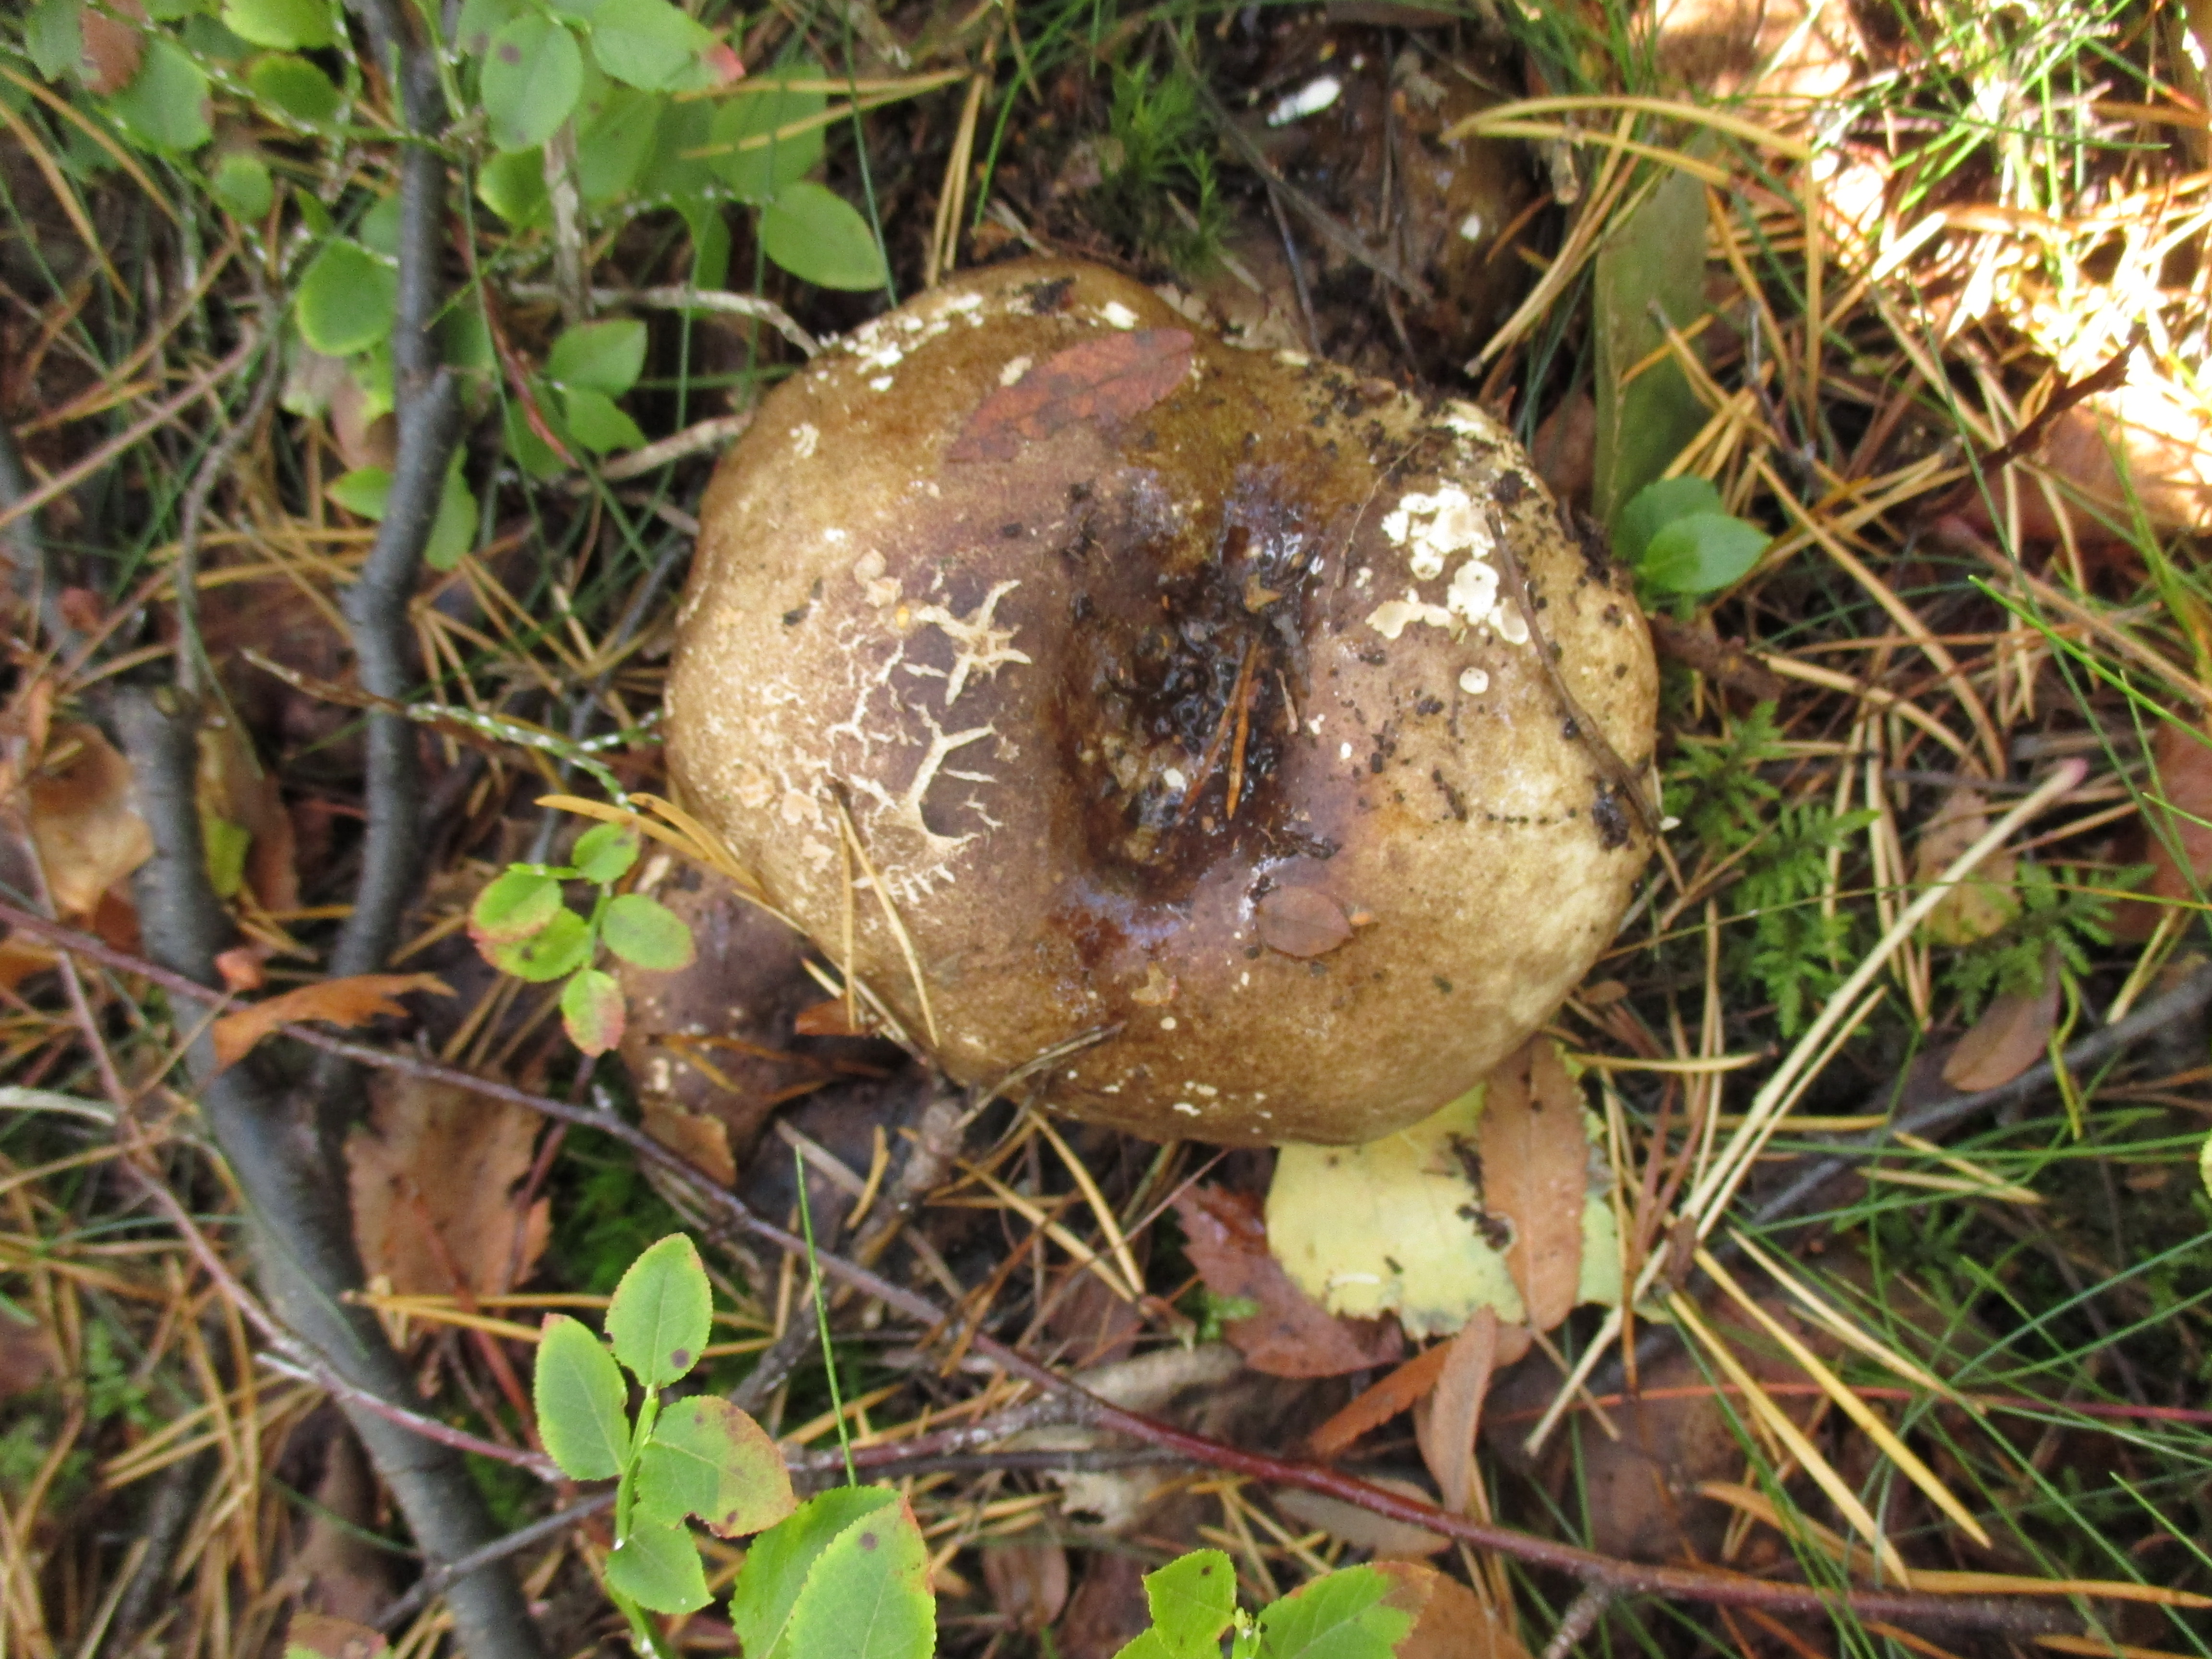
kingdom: Fungi
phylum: Basidiomycota
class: Agaricomycetes
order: Russulales
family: Russulaceae
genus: Russula
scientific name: Russula adusta
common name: Winecork brittlegill
